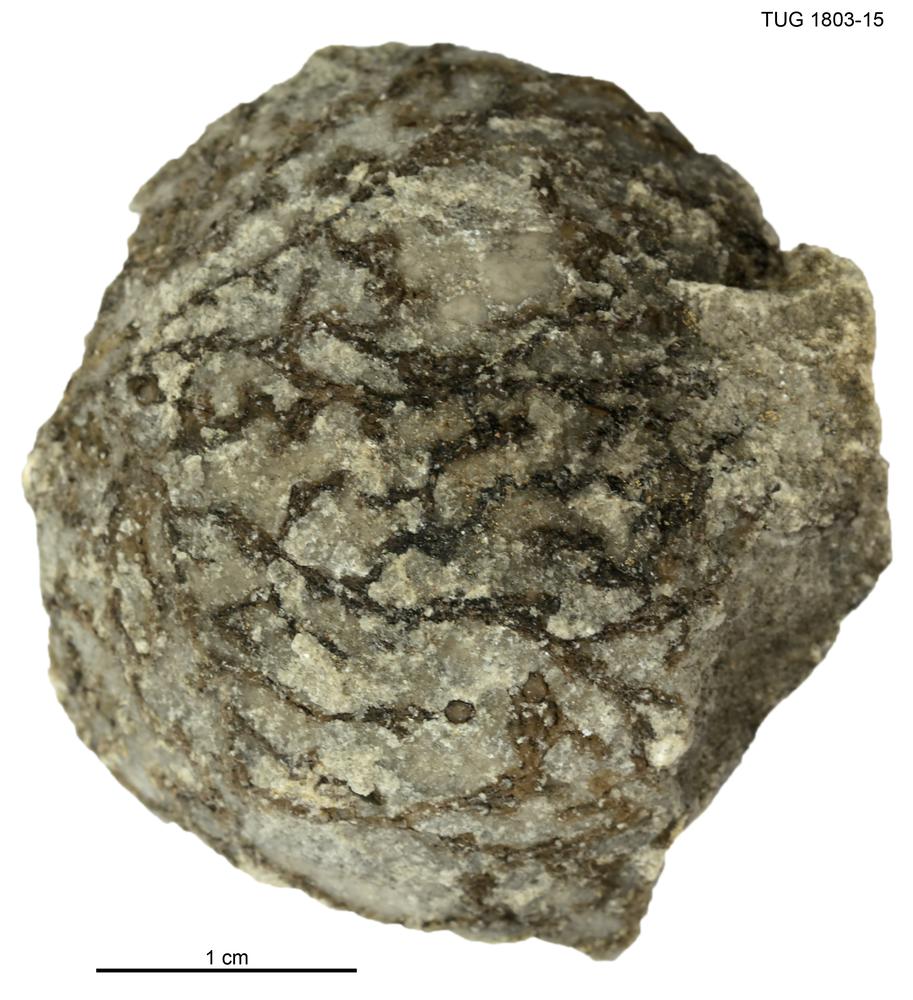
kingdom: Animalia
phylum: Hemichordata
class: Pterobranchia
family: Hormograptidae
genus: Hormograptus
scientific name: Hormograptus
